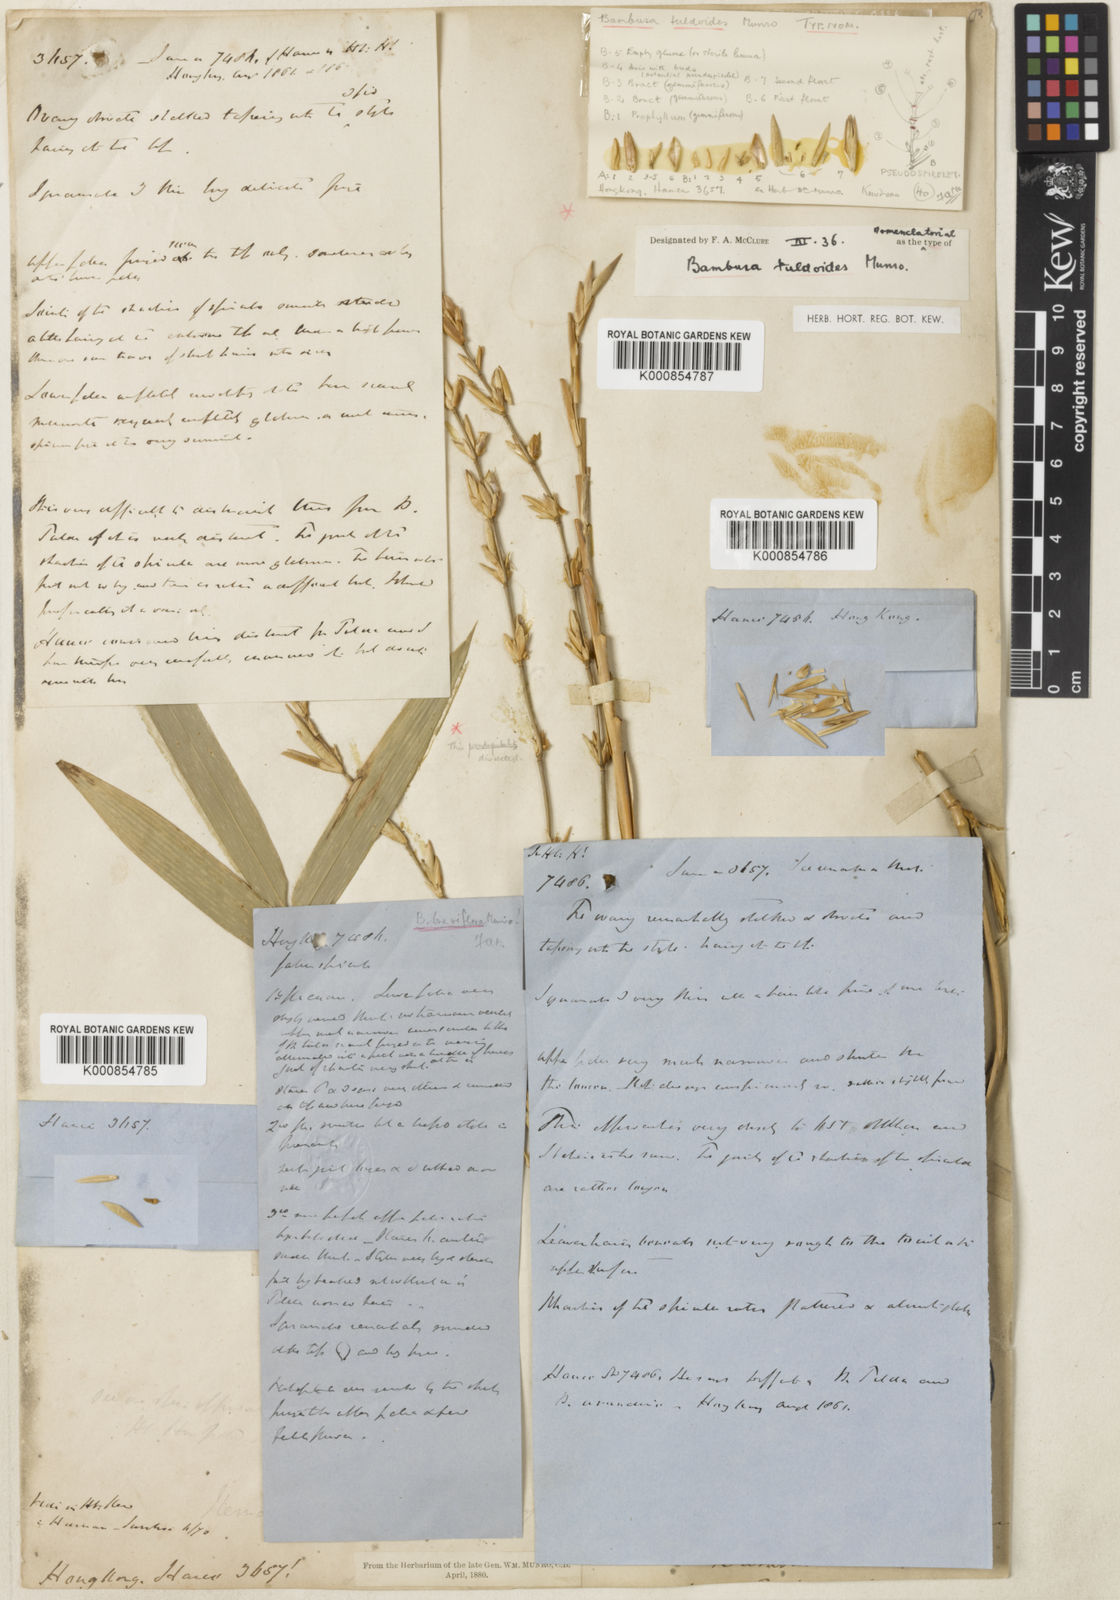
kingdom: Plantae
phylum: Tracheophyta
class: Liliopsida
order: Poales
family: Poaceae
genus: Bambusa
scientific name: Bambusa tuldoides
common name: Verdant bamboo
